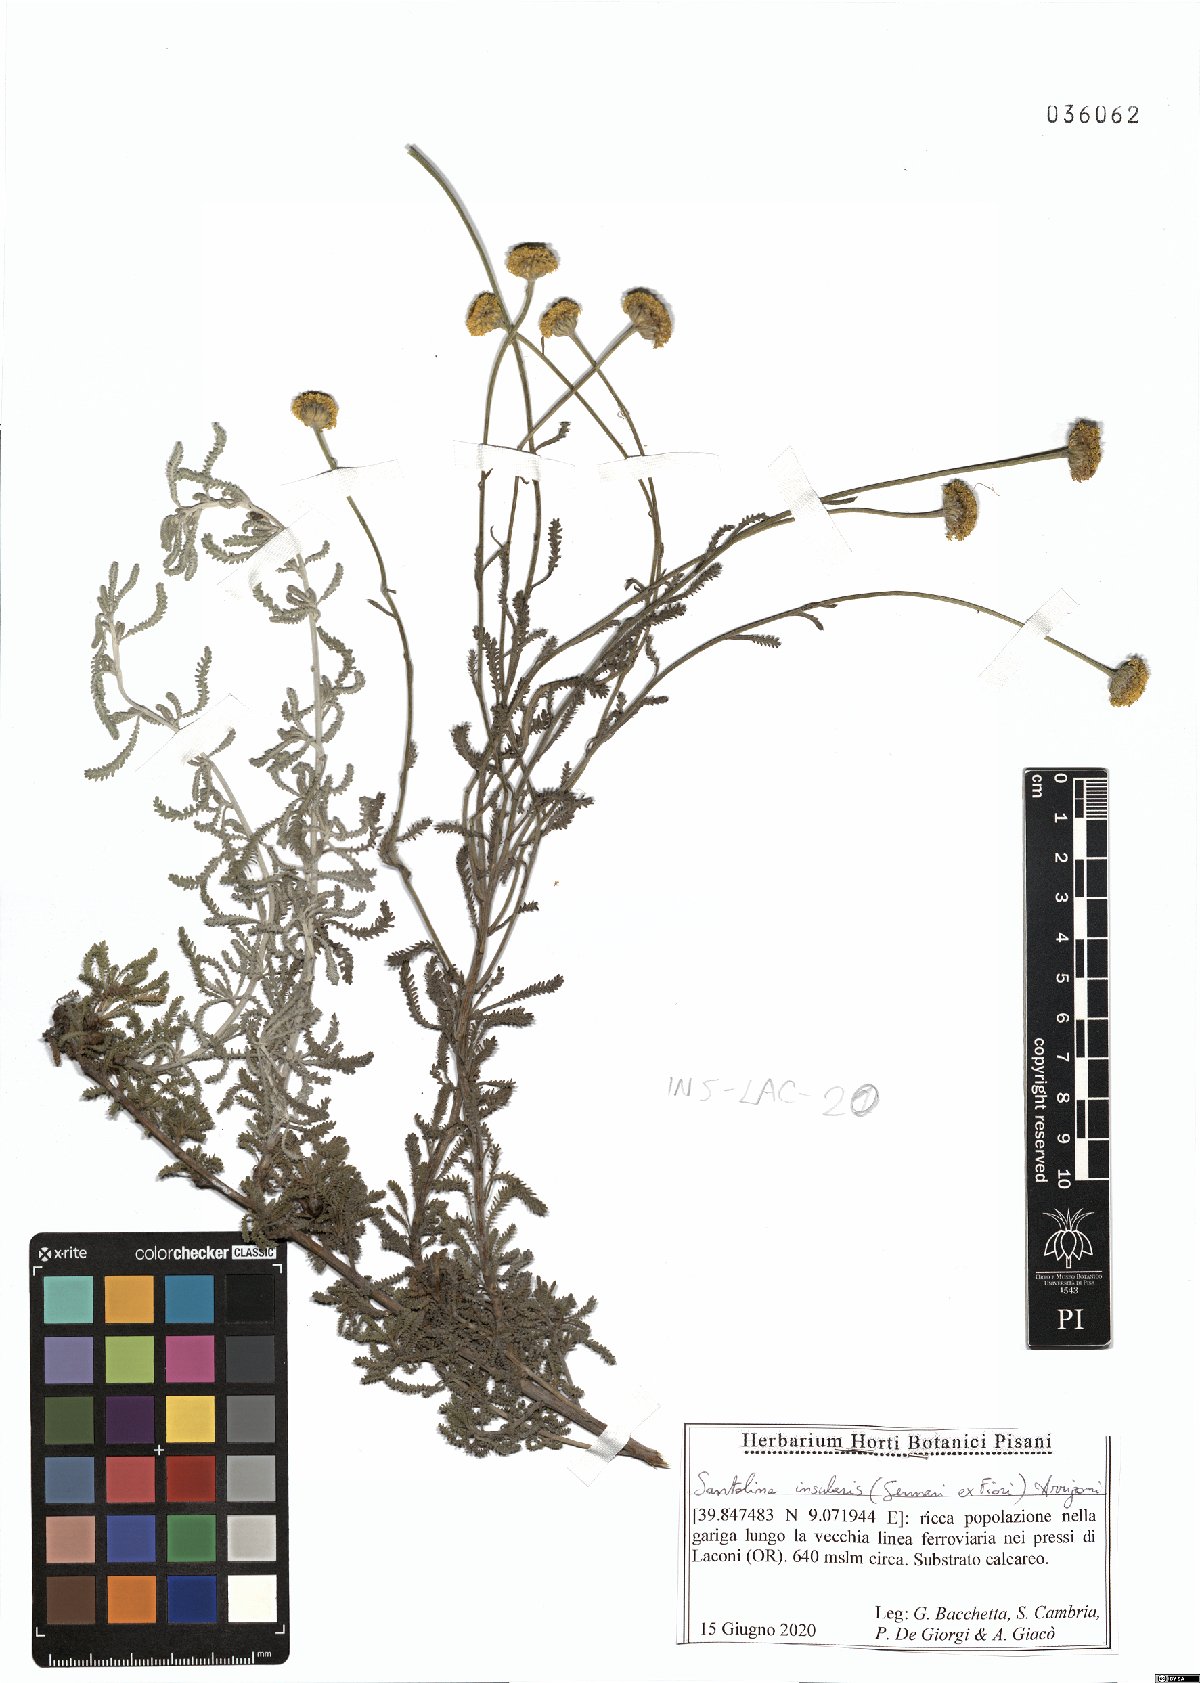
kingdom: Plantae
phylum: Tracheophyta
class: Magnoliopsida
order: Asterales
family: Asteraceae
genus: Santolina
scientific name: Santolina insularis
